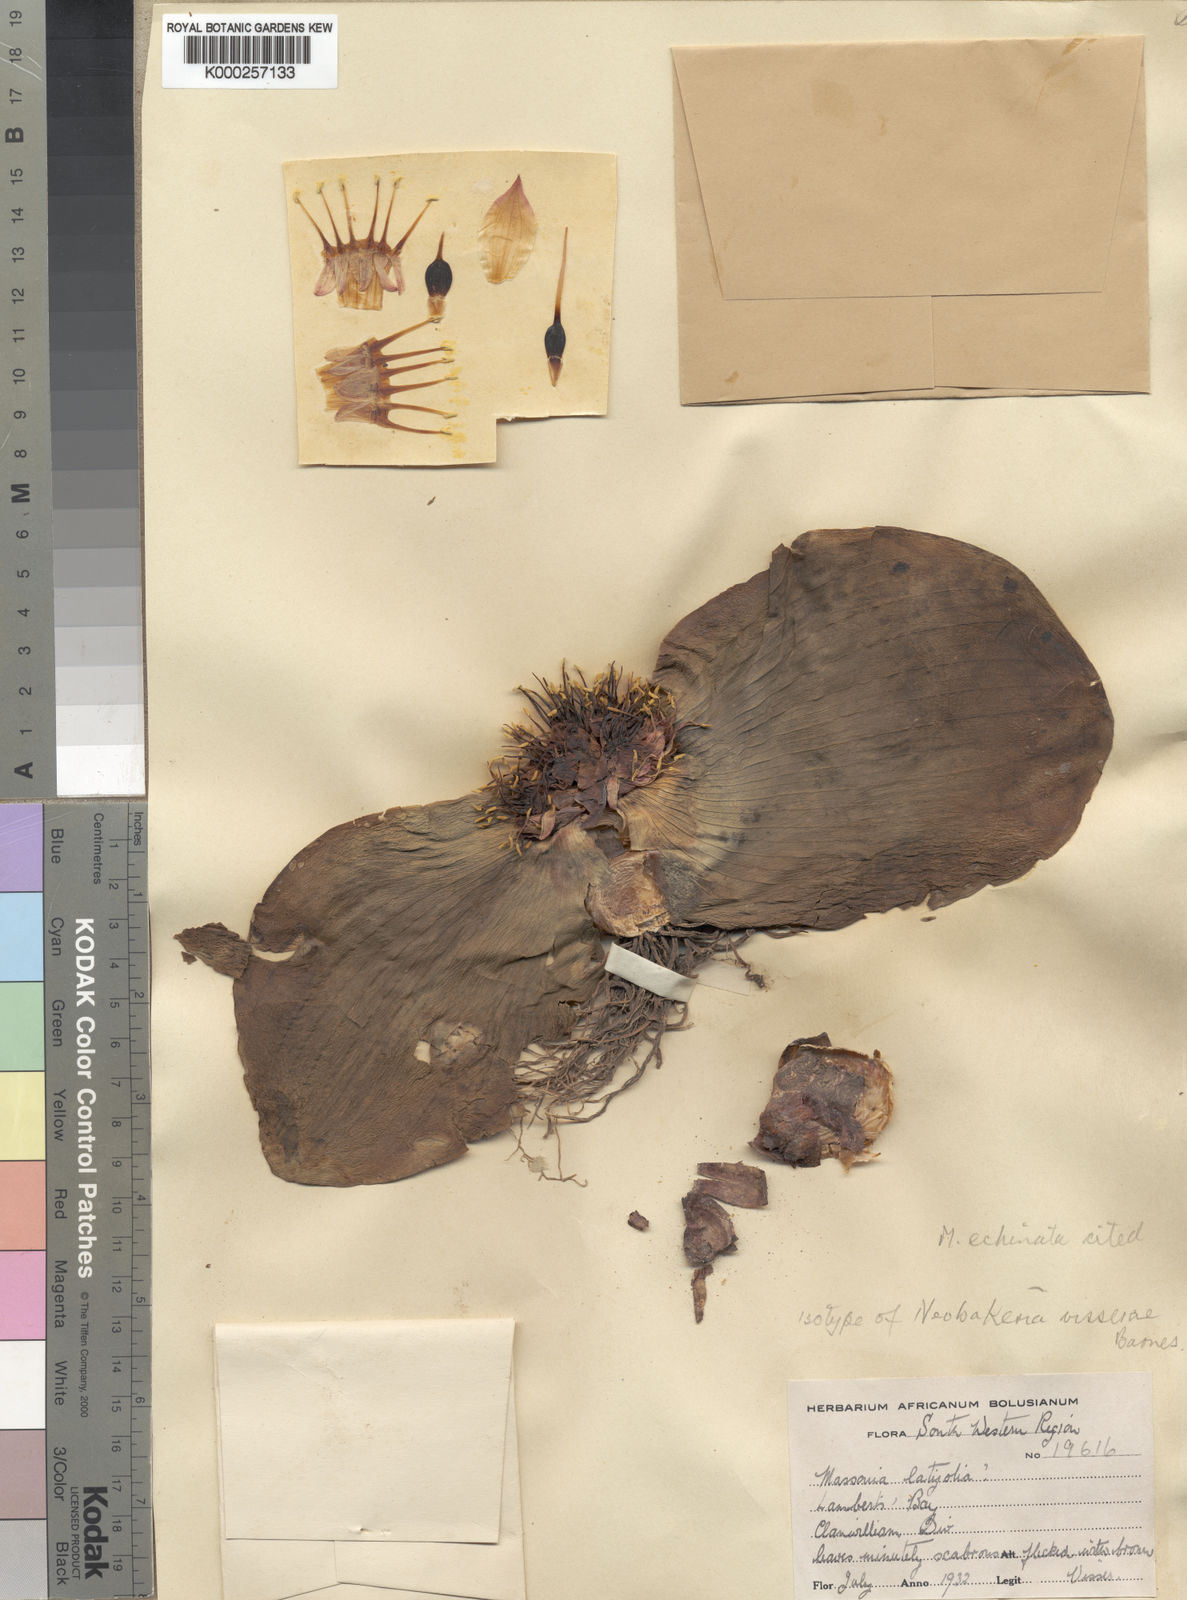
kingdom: Plantae
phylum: Tracheophyta
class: Liliopsida
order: Asparagales
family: Asparagaceae
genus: Massonia
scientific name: Massonia echinata
